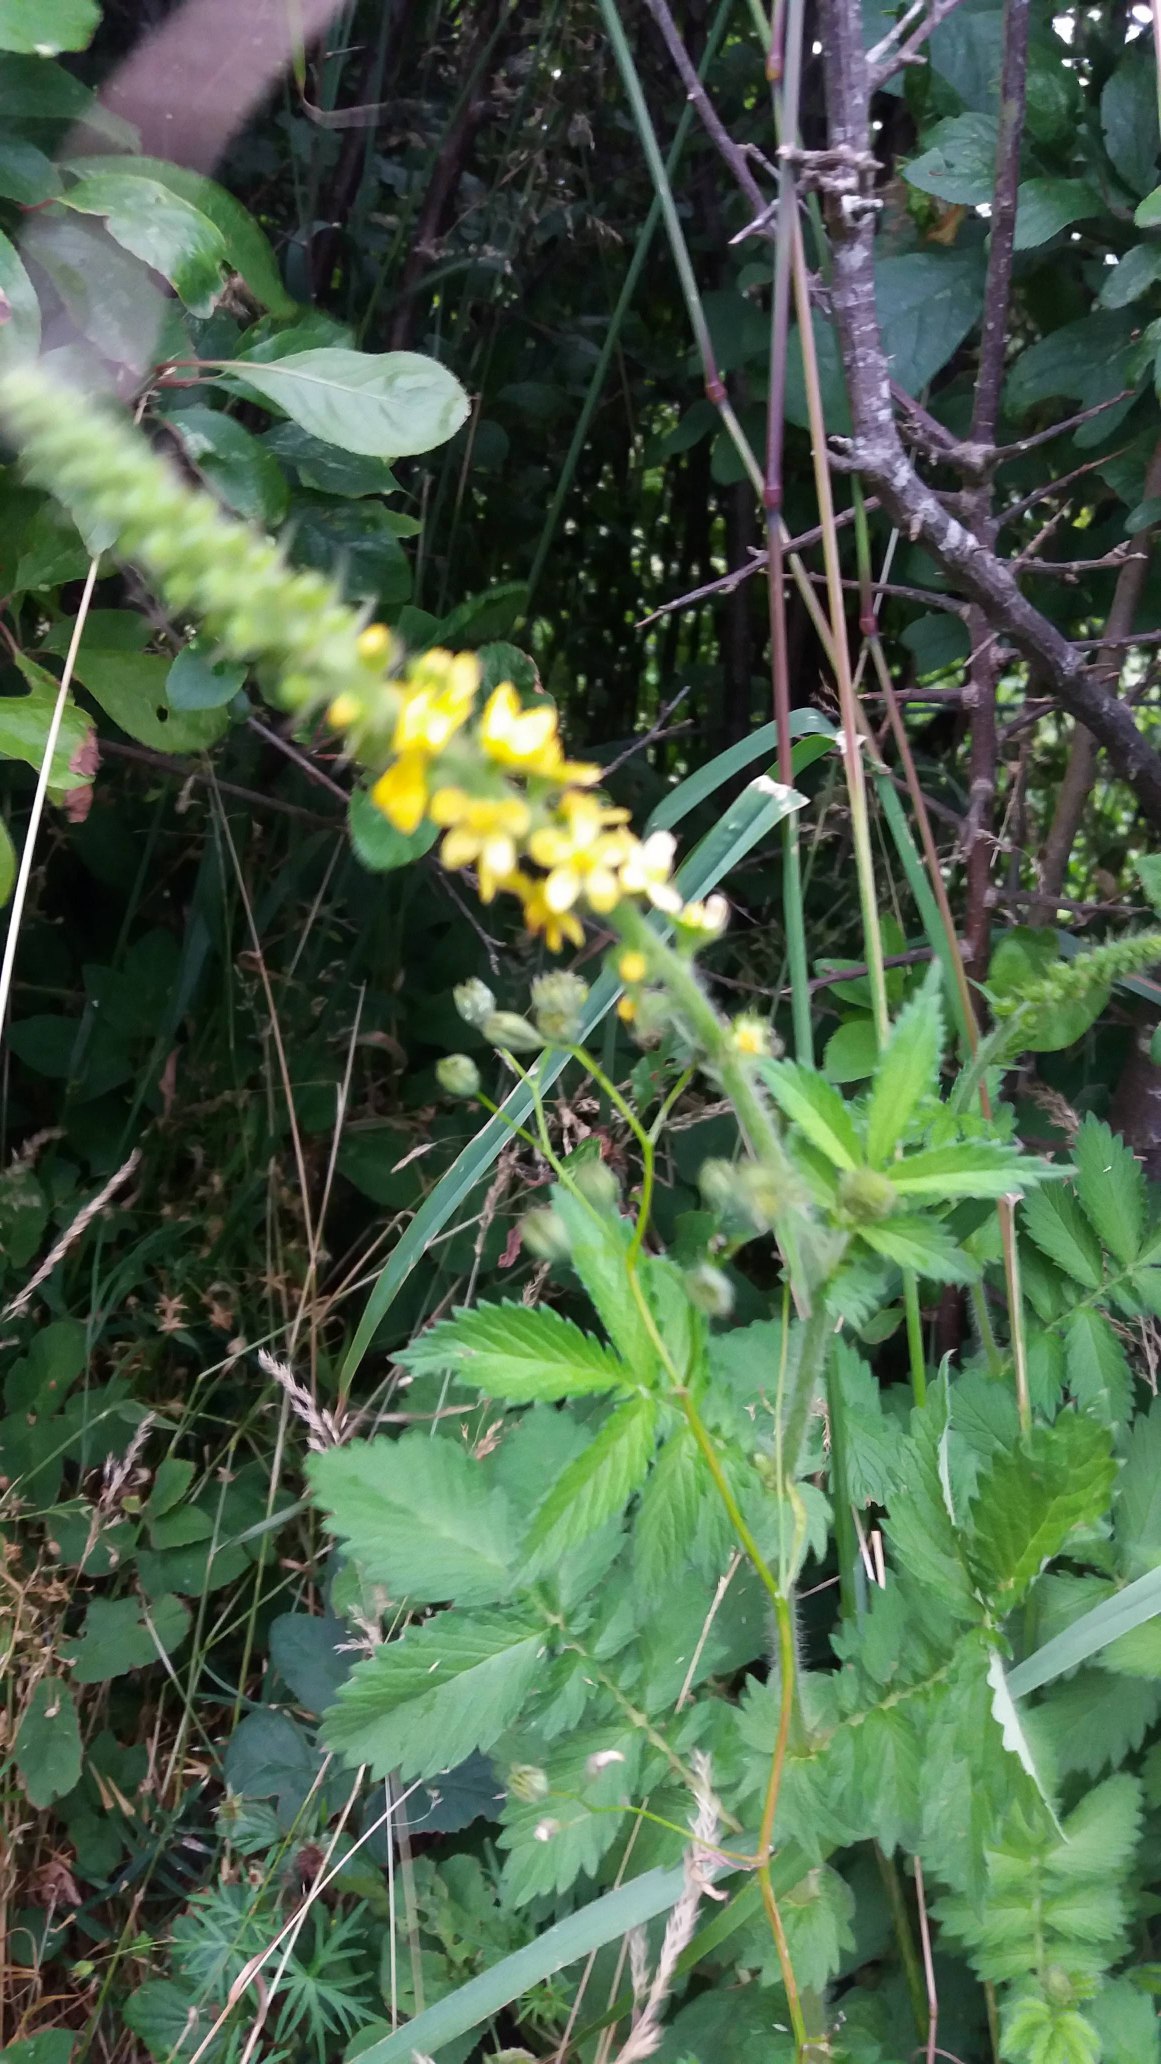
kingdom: Plantae
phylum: Tracheophyta
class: Magnoliopsida
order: Rosales
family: Rosaceae
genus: Agrimonia
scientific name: Agrimonia
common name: Agermåneslægten
